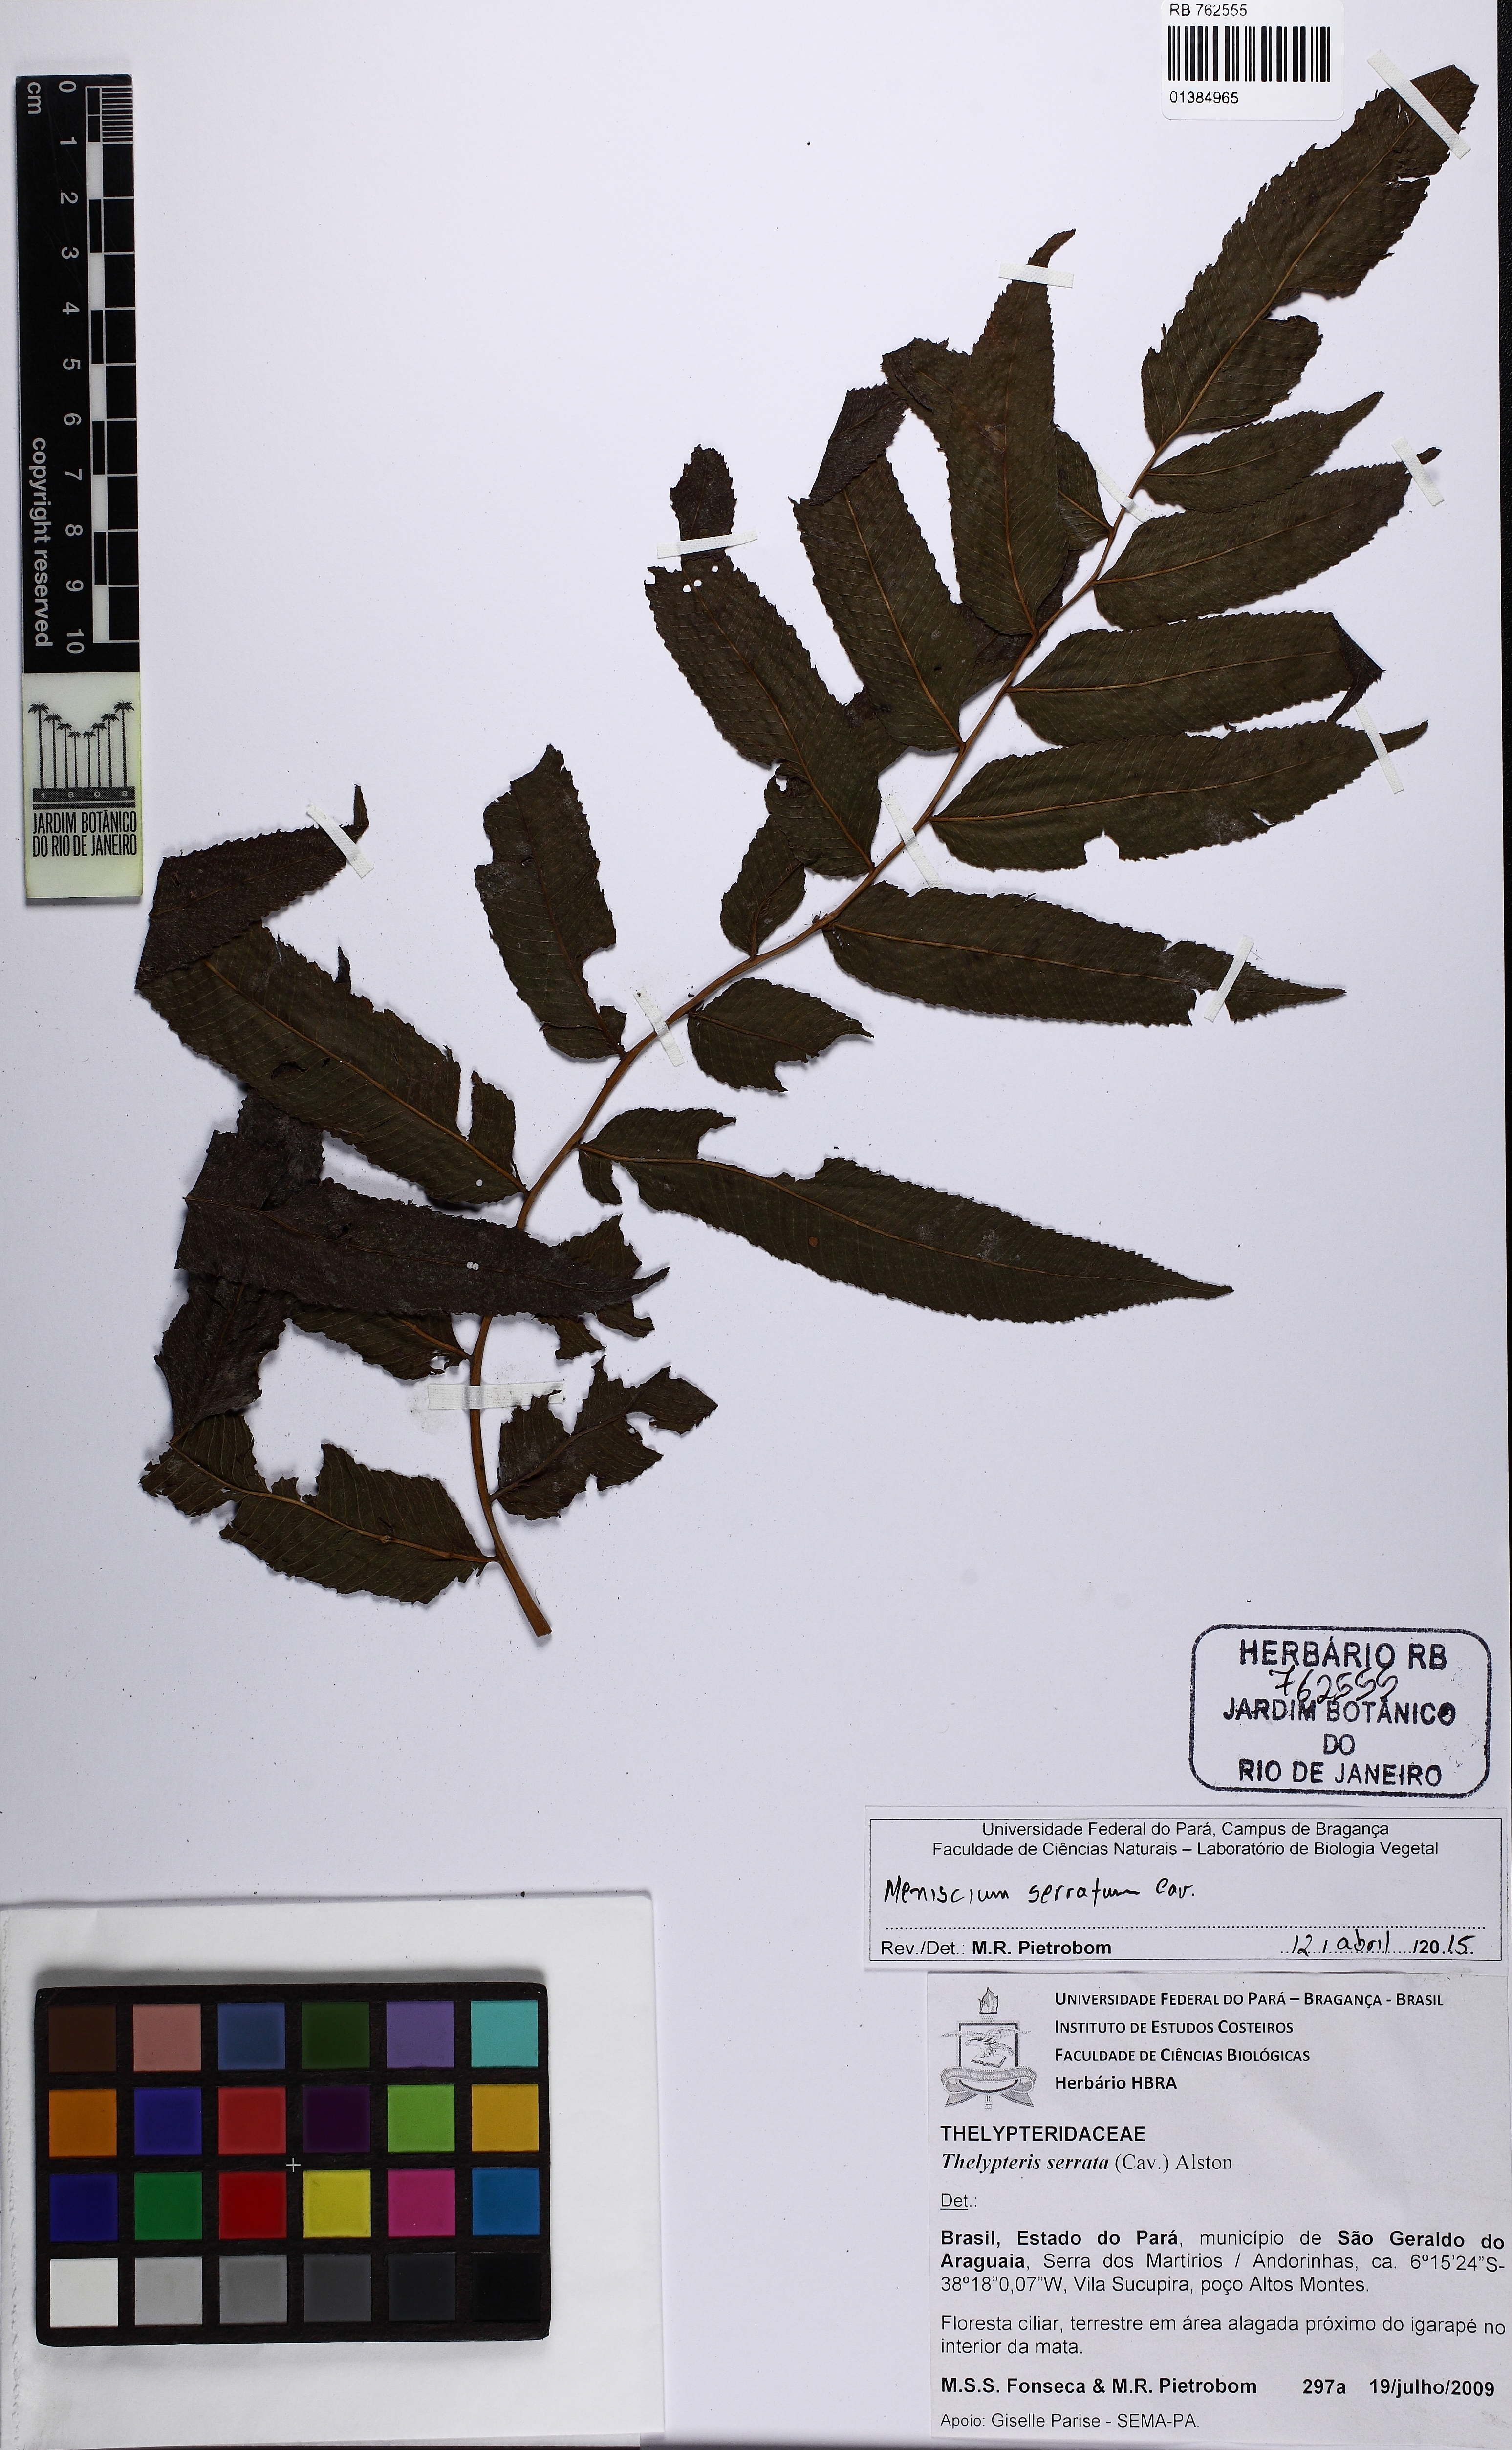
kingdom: Plantae
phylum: Tracheophyta
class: Polypodiopsida
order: Polypodiales
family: Thelypteridaceae
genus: Meniscium
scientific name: Meniscium serratum
